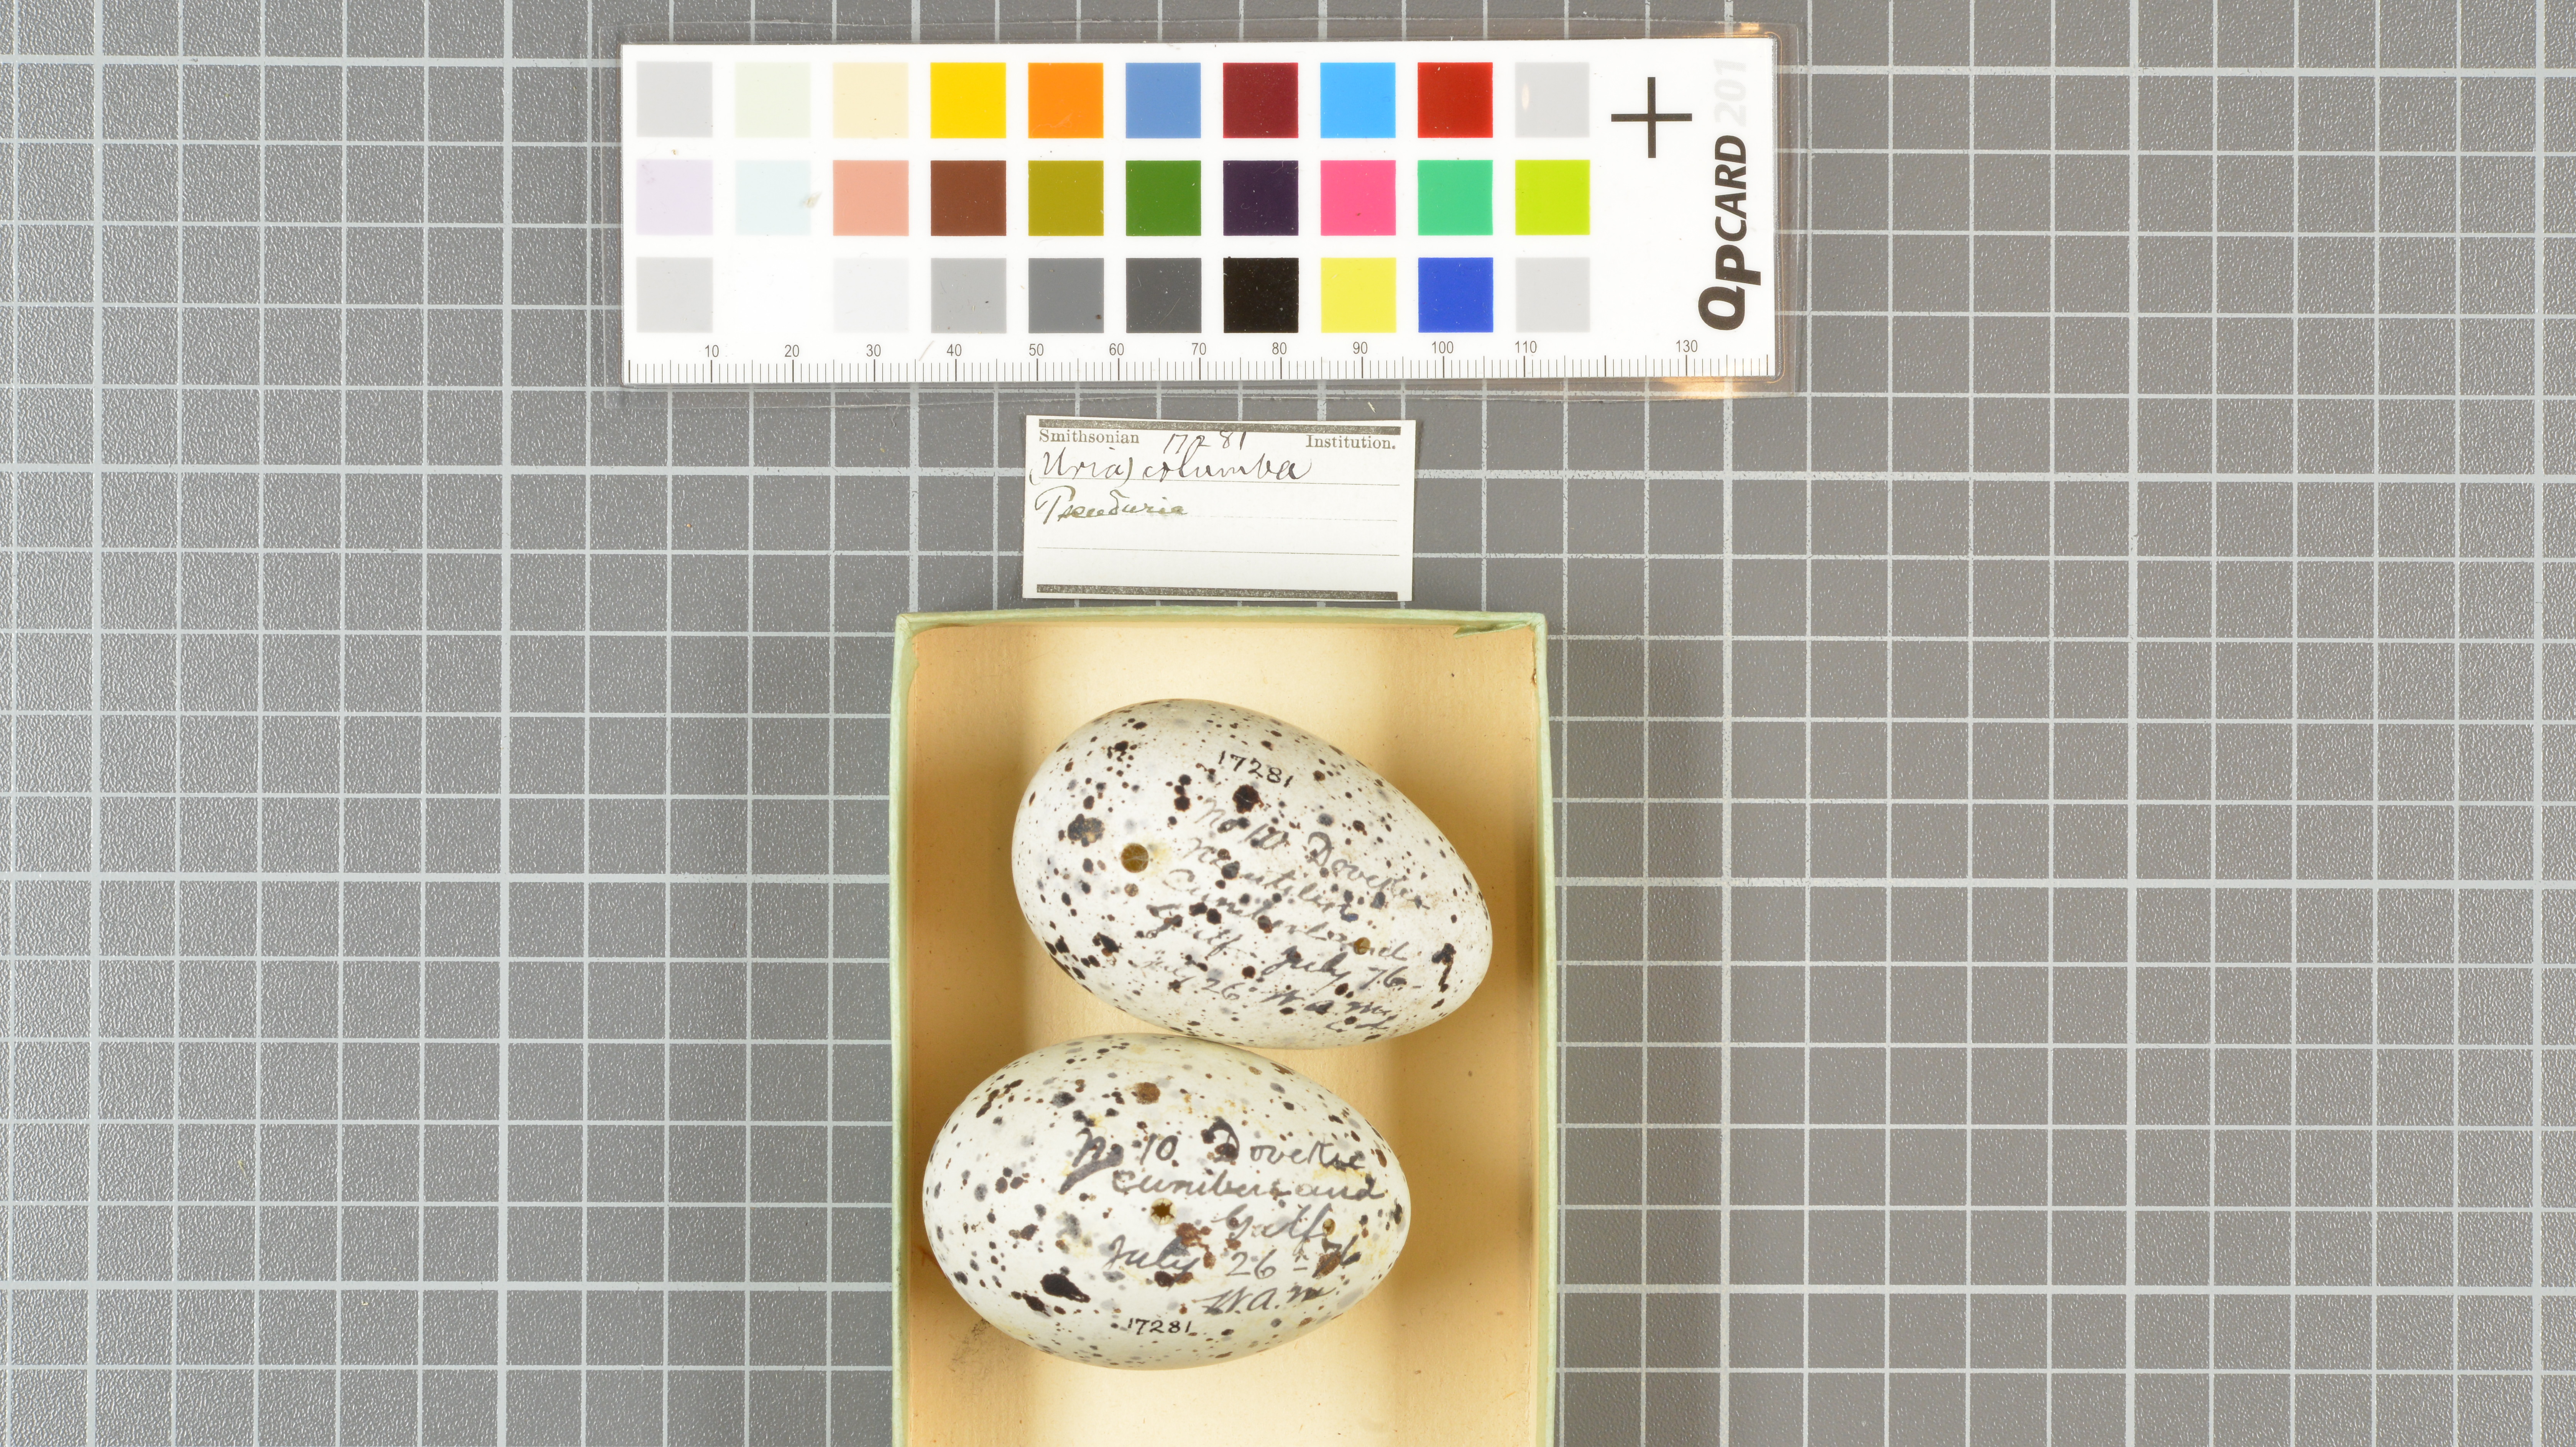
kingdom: Animalia
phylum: Chordata
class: Aves
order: Charadriiformes
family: Alcidae
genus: Cepphus
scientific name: Cepphus columba
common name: Pigeon guillemot
